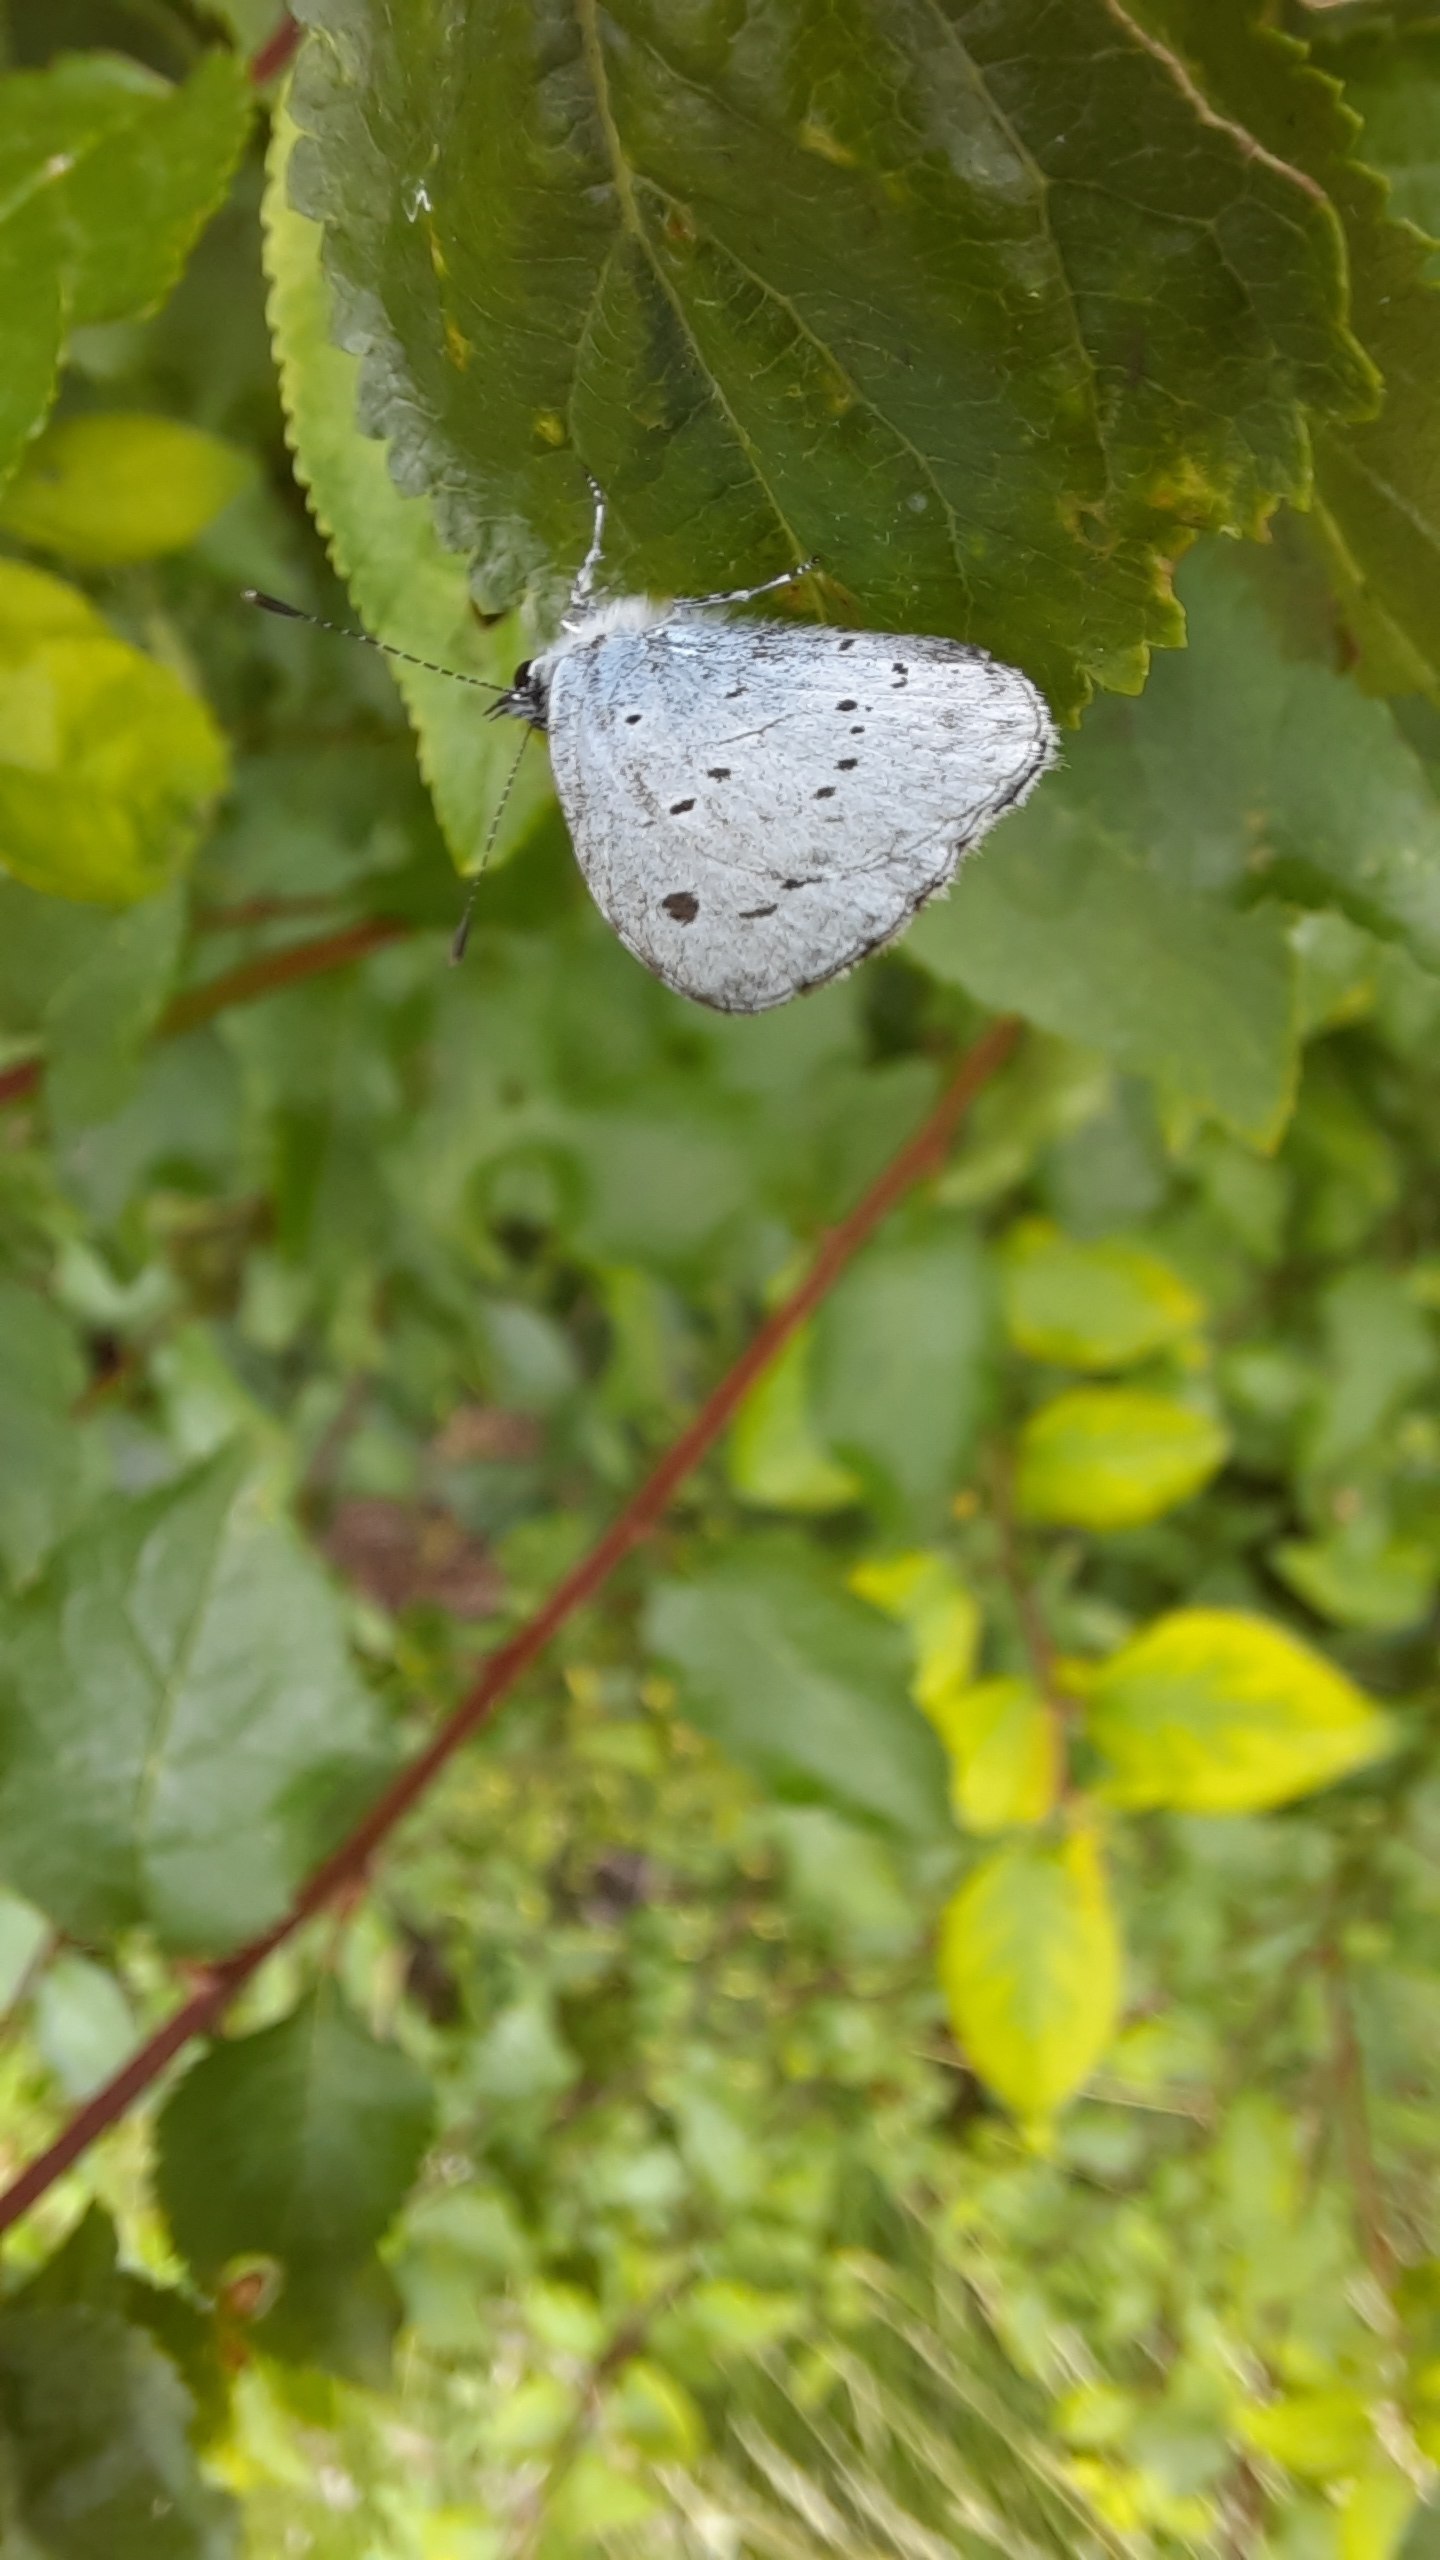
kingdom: Animalia
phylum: Arthropoda
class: Insecta
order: Lepidoptera
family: Lycaenidae
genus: Celastrina
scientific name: Celastrina argiolus
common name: Skovblåfugl
